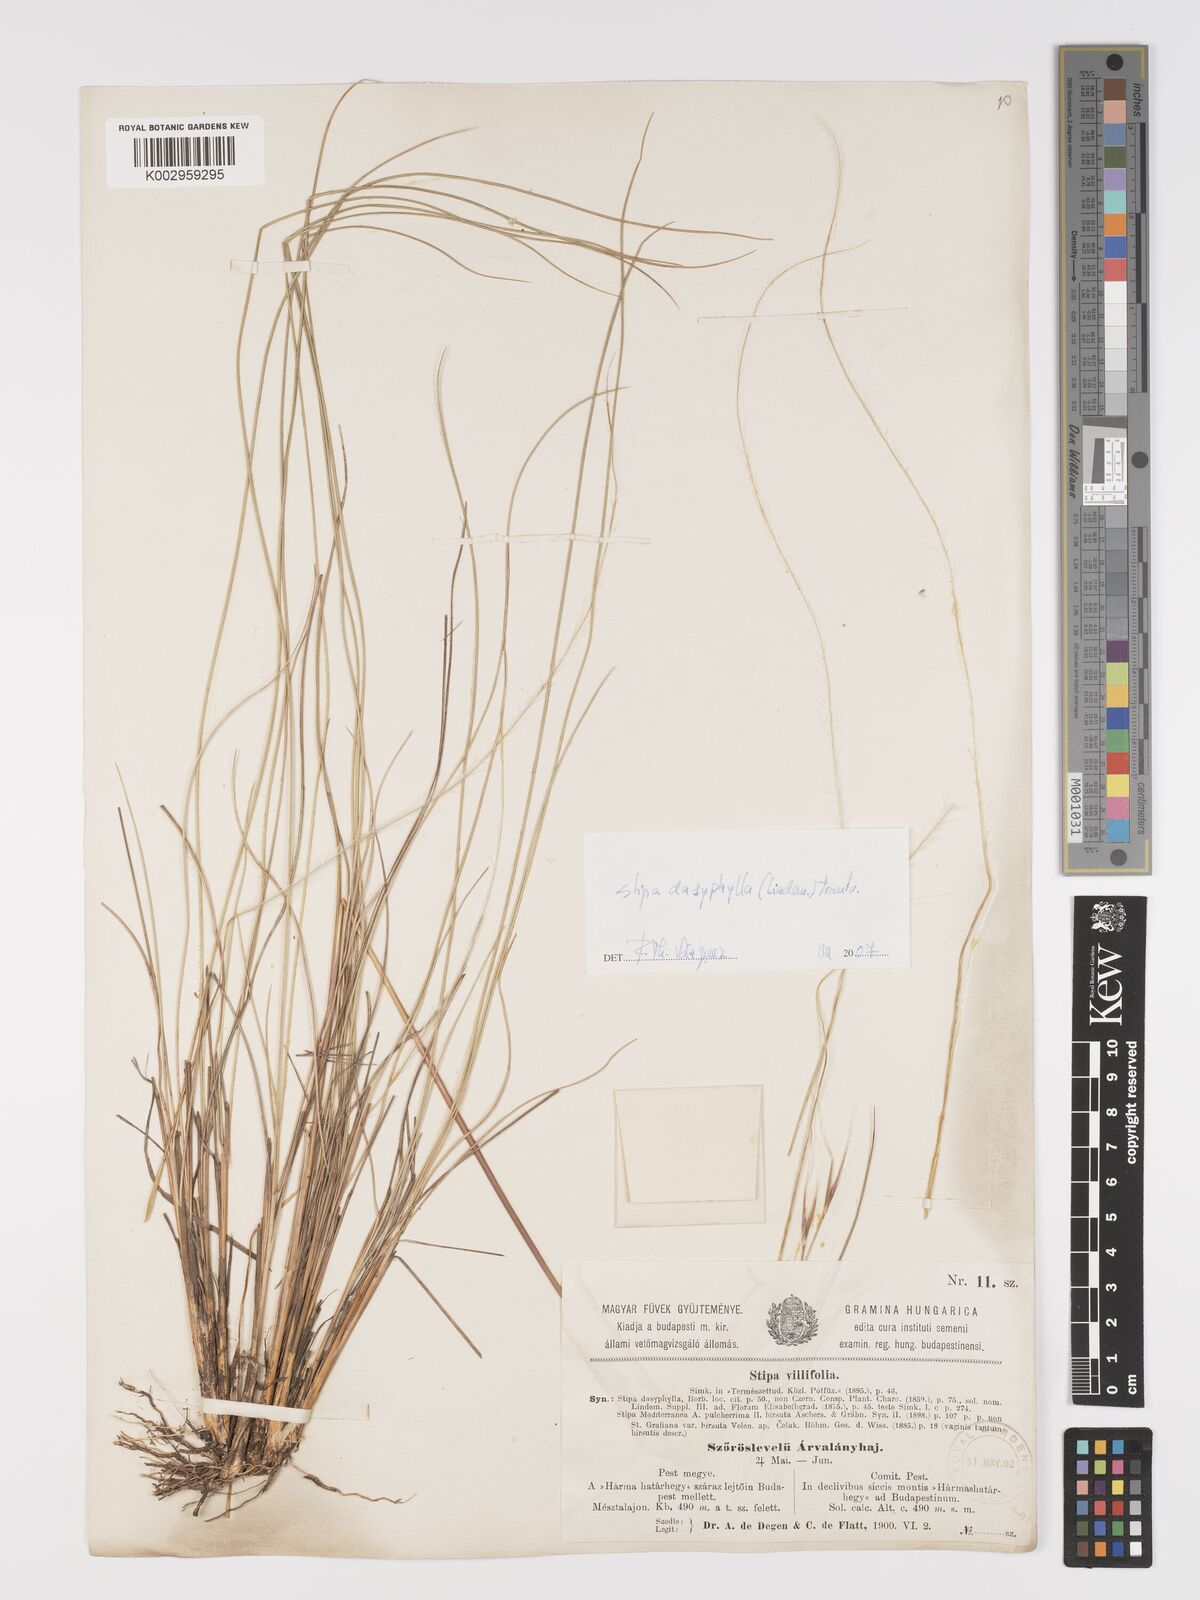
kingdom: Plantae
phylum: Tracheophyta
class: Liliopsida
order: Poales
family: Poaceae
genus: Stipa
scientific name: Stipa dasyphylla
